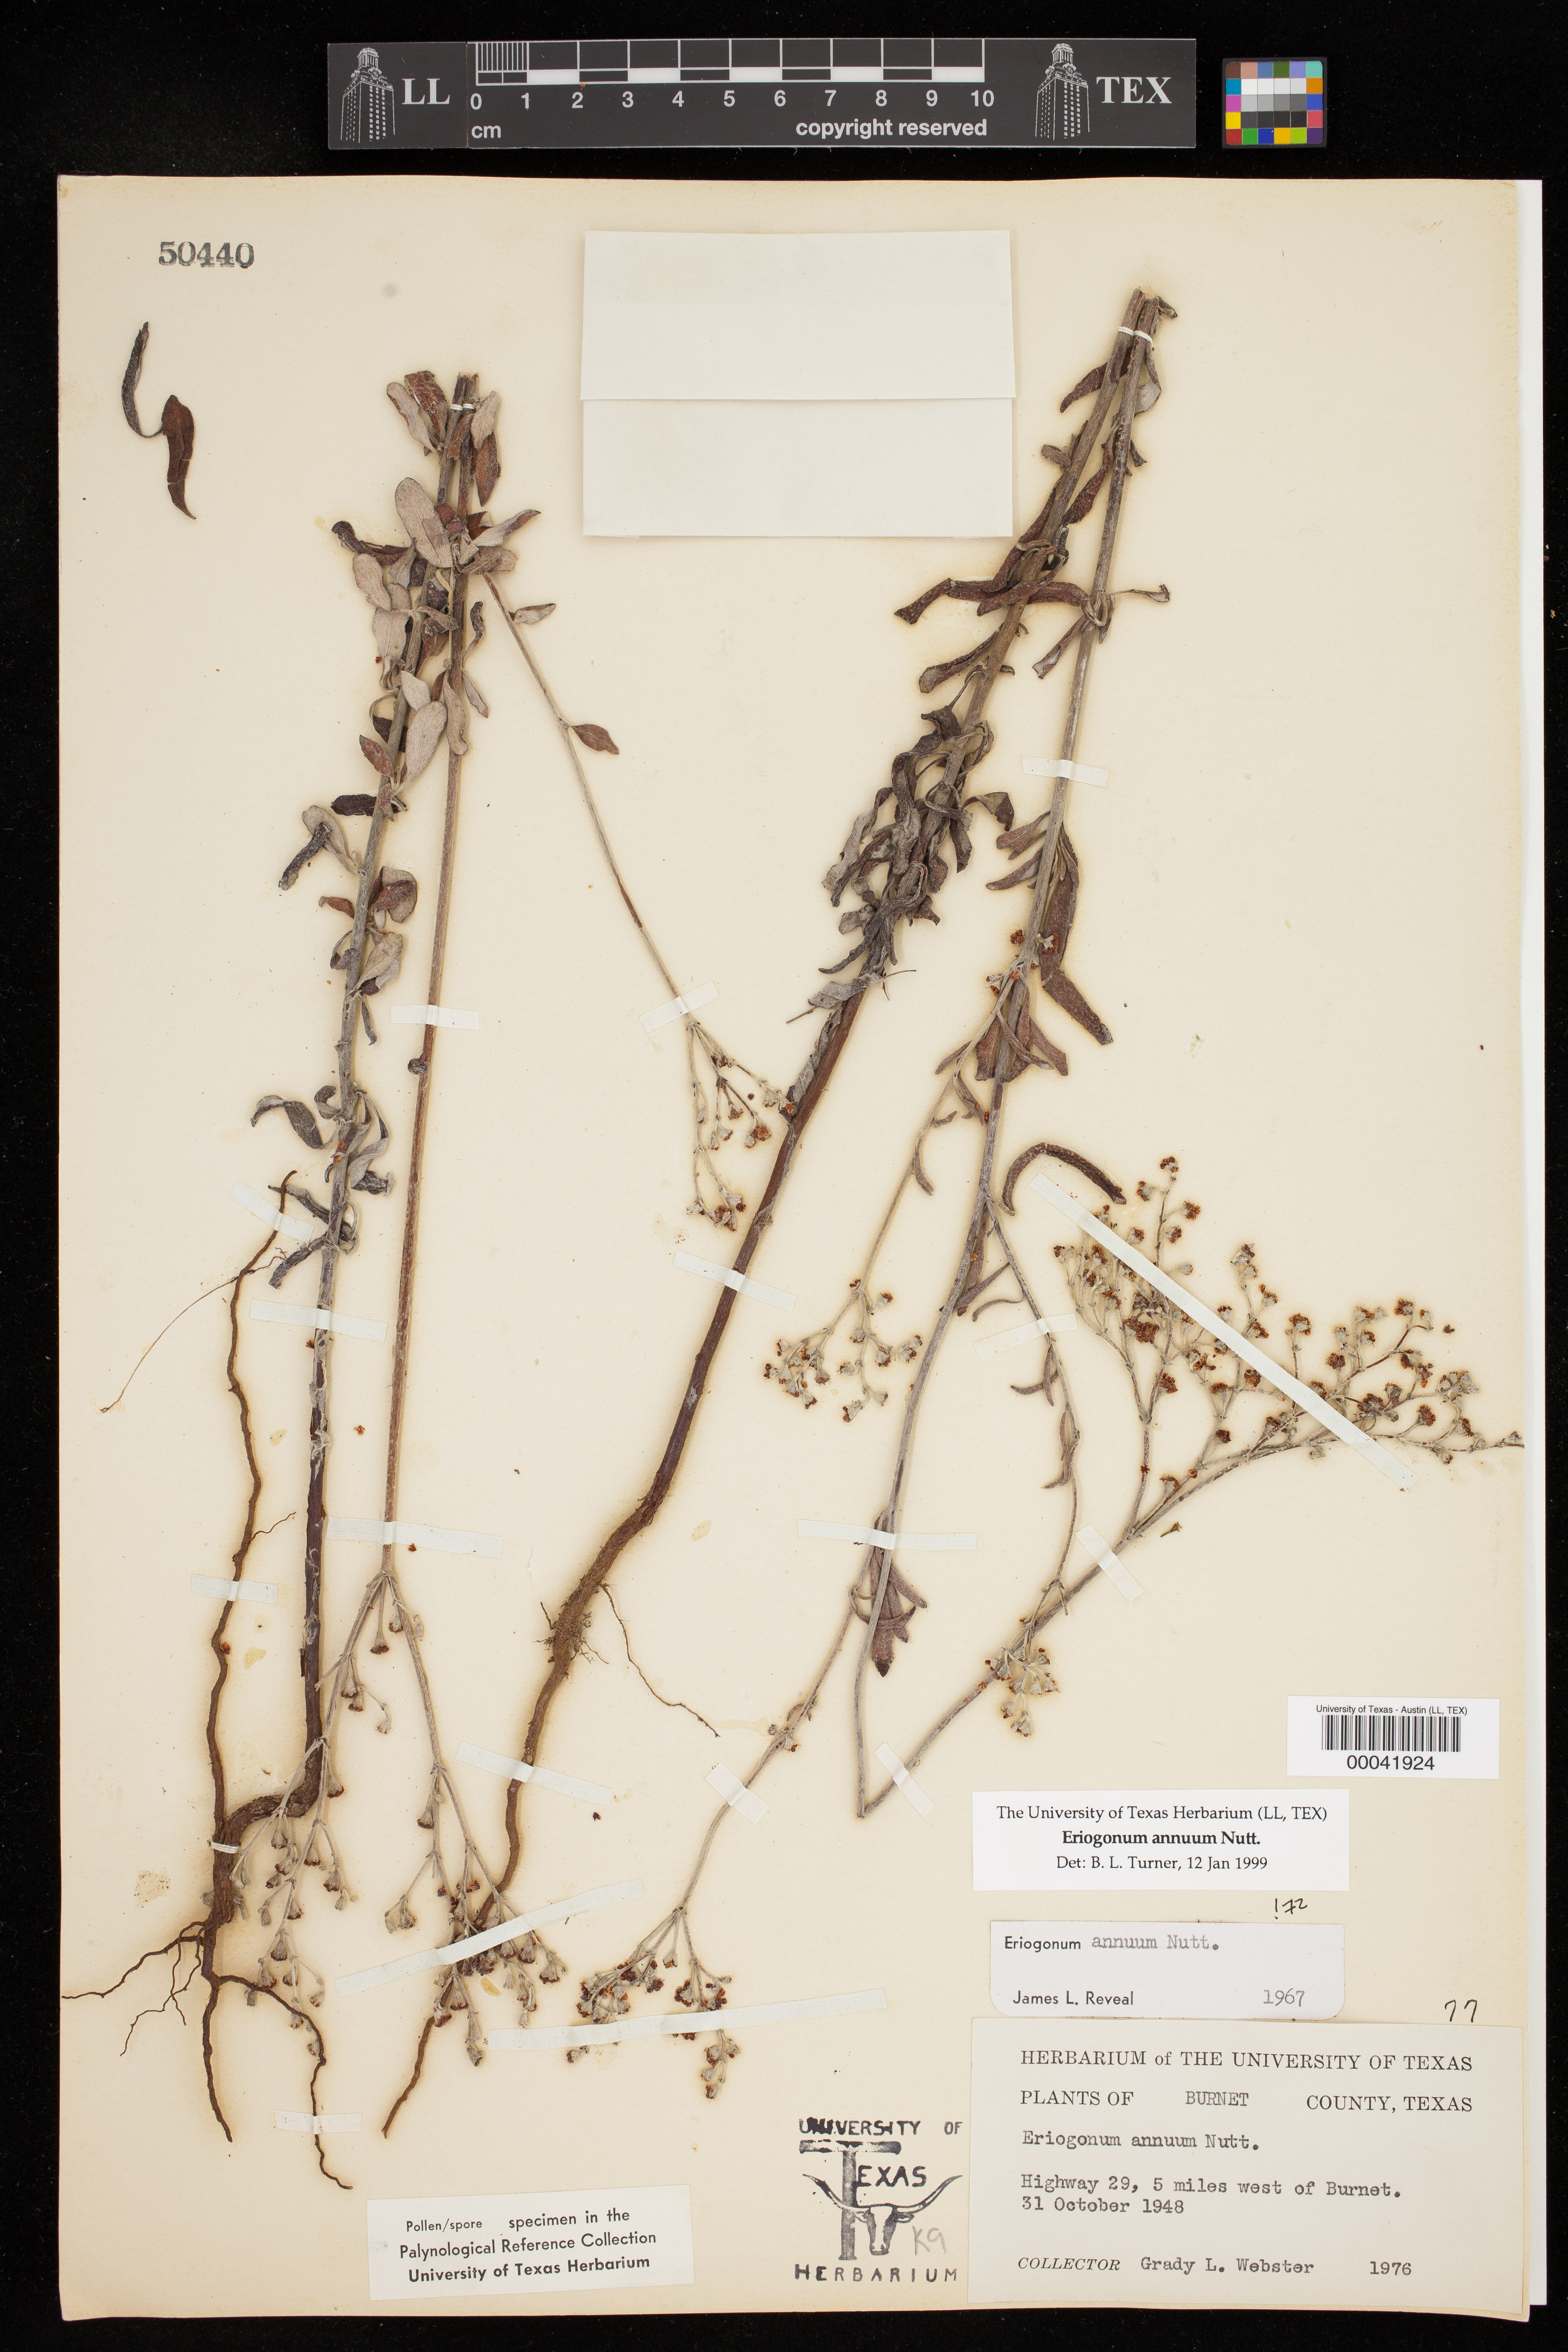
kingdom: Plantae
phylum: Tracheophyta
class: Magnoliopsida
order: Caryophyllales
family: Polygonaceae
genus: Eriogonum
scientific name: Eriogonum annuum
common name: Annual wild buckwheat
